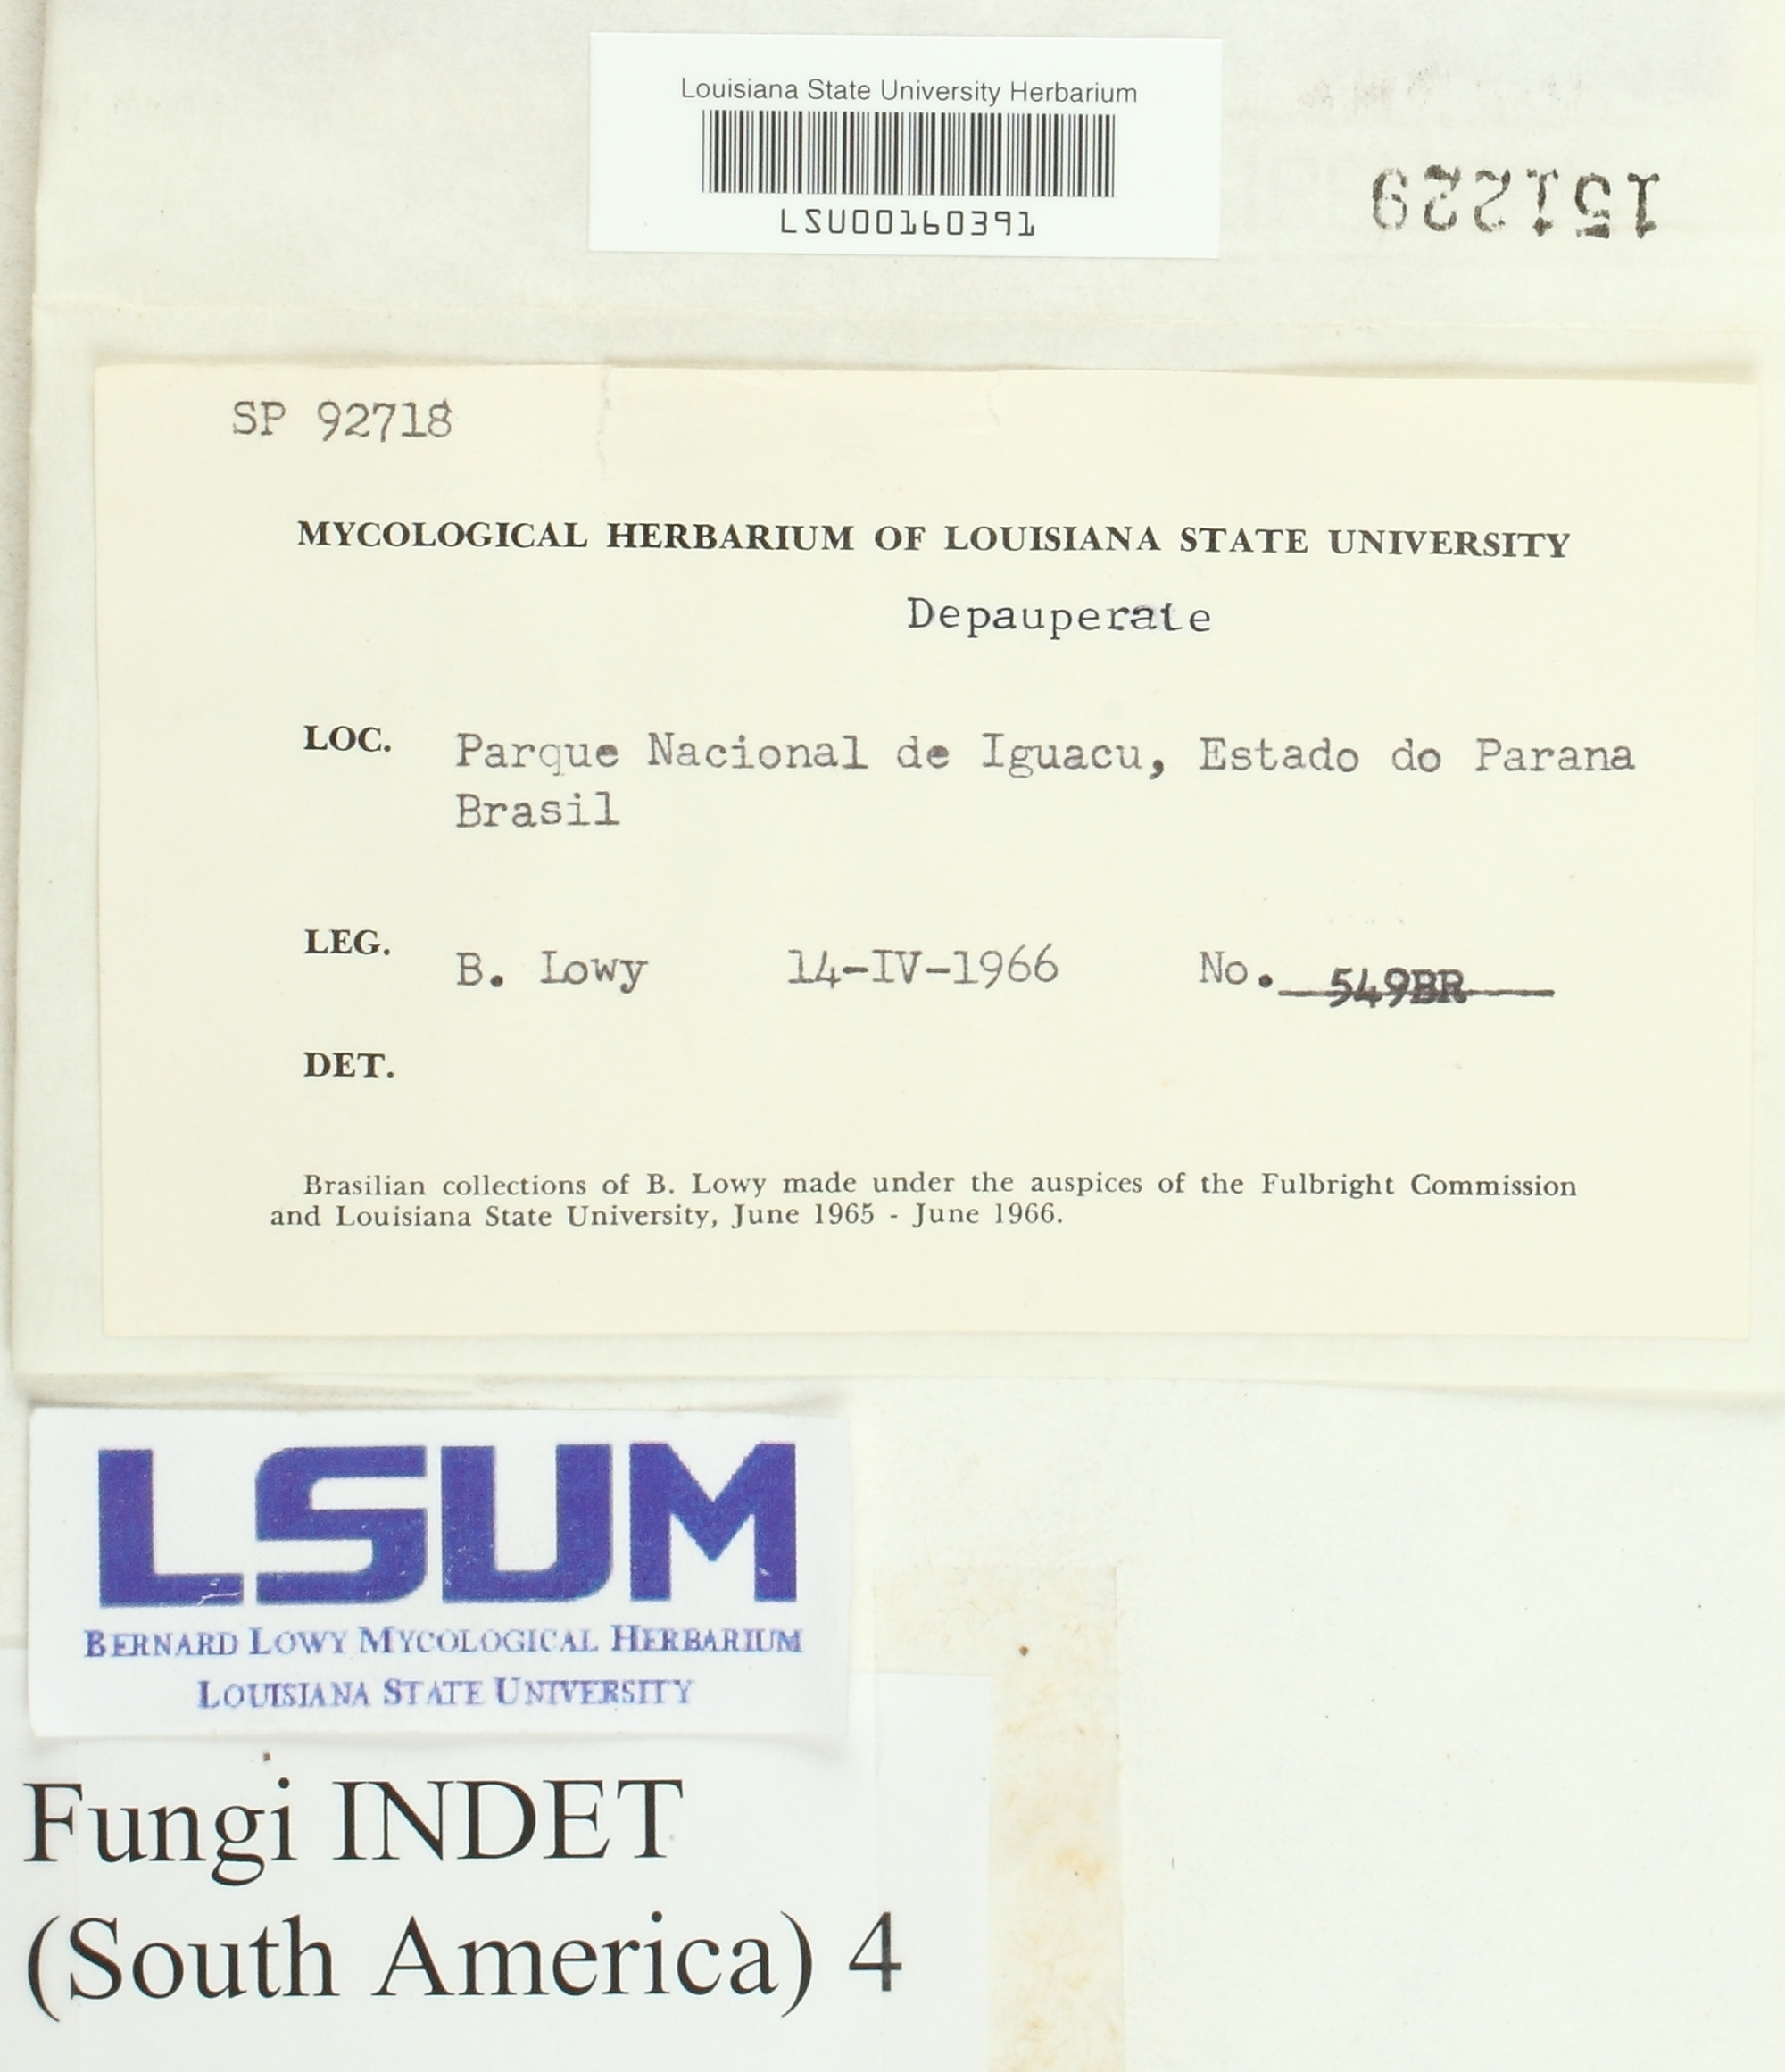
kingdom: Fungi
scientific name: Fungi
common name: Fungi
